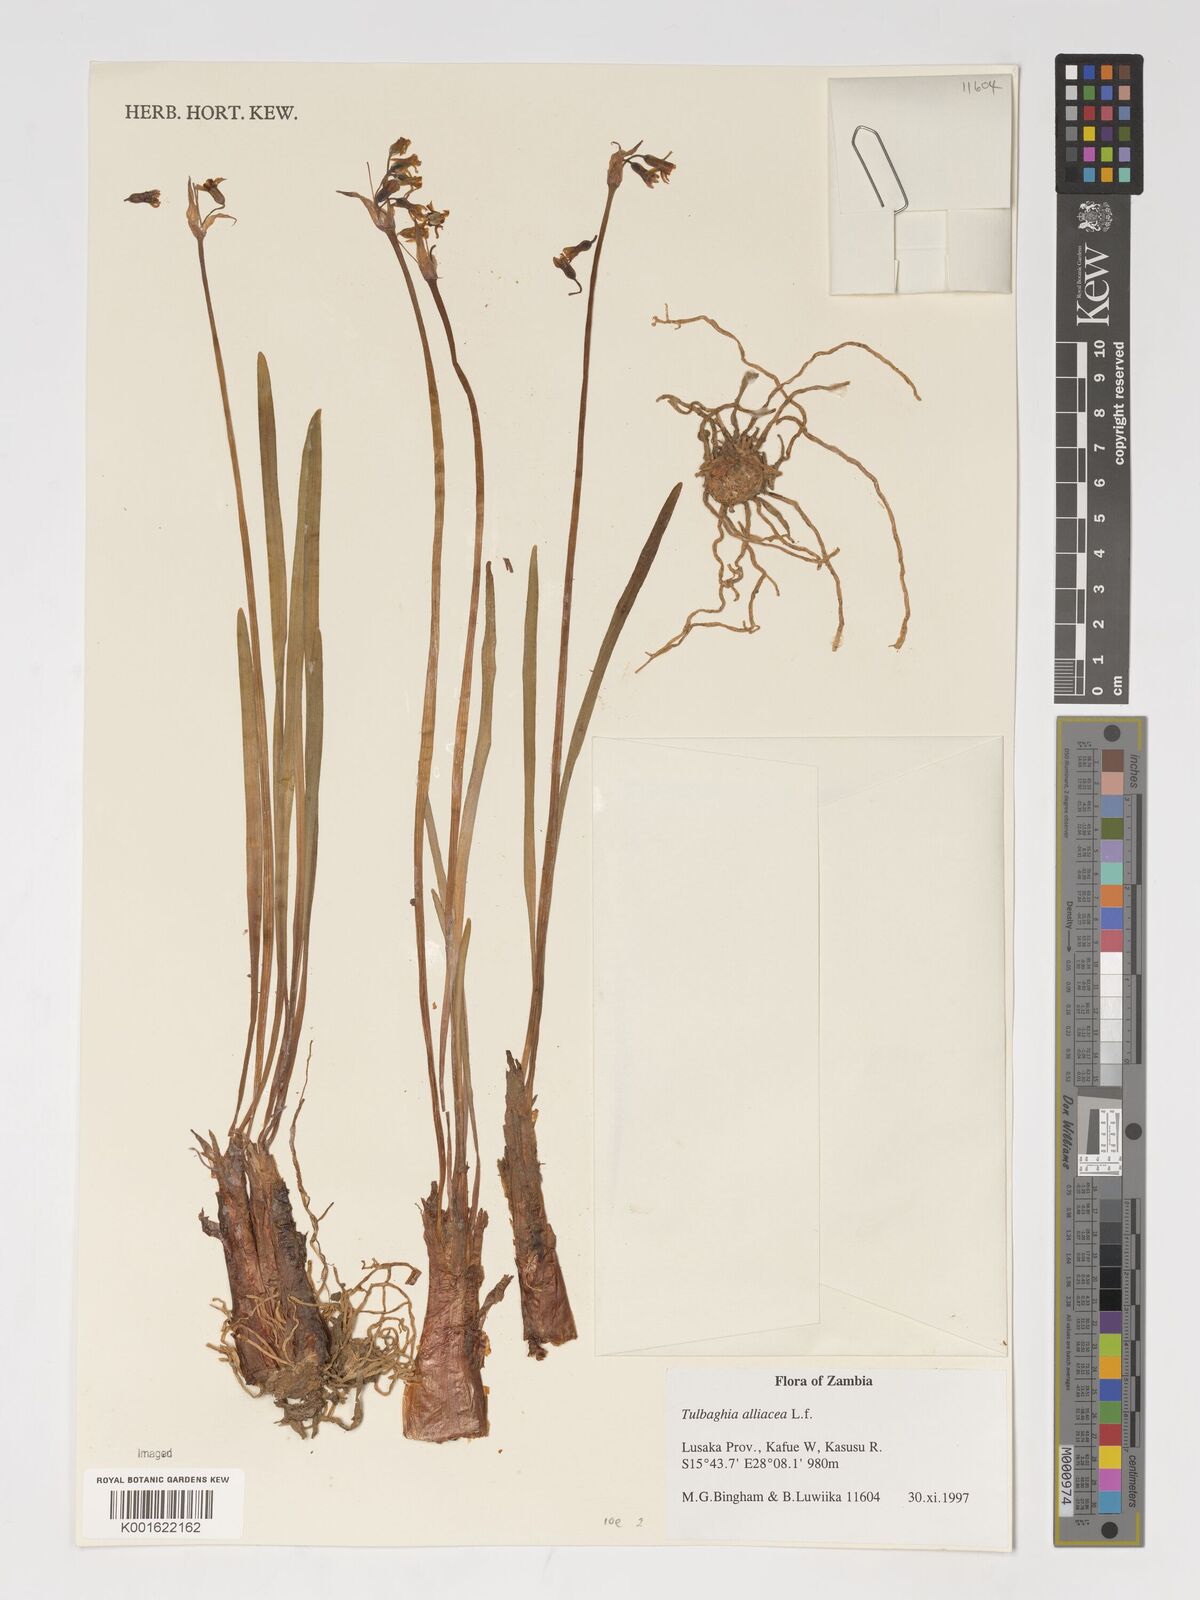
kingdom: Plantae
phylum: Tracheophyta
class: Liliopsida
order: Asparagales
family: Amaryllidaceae
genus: Tulbaghia
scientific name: Tulbaghia alliacea
